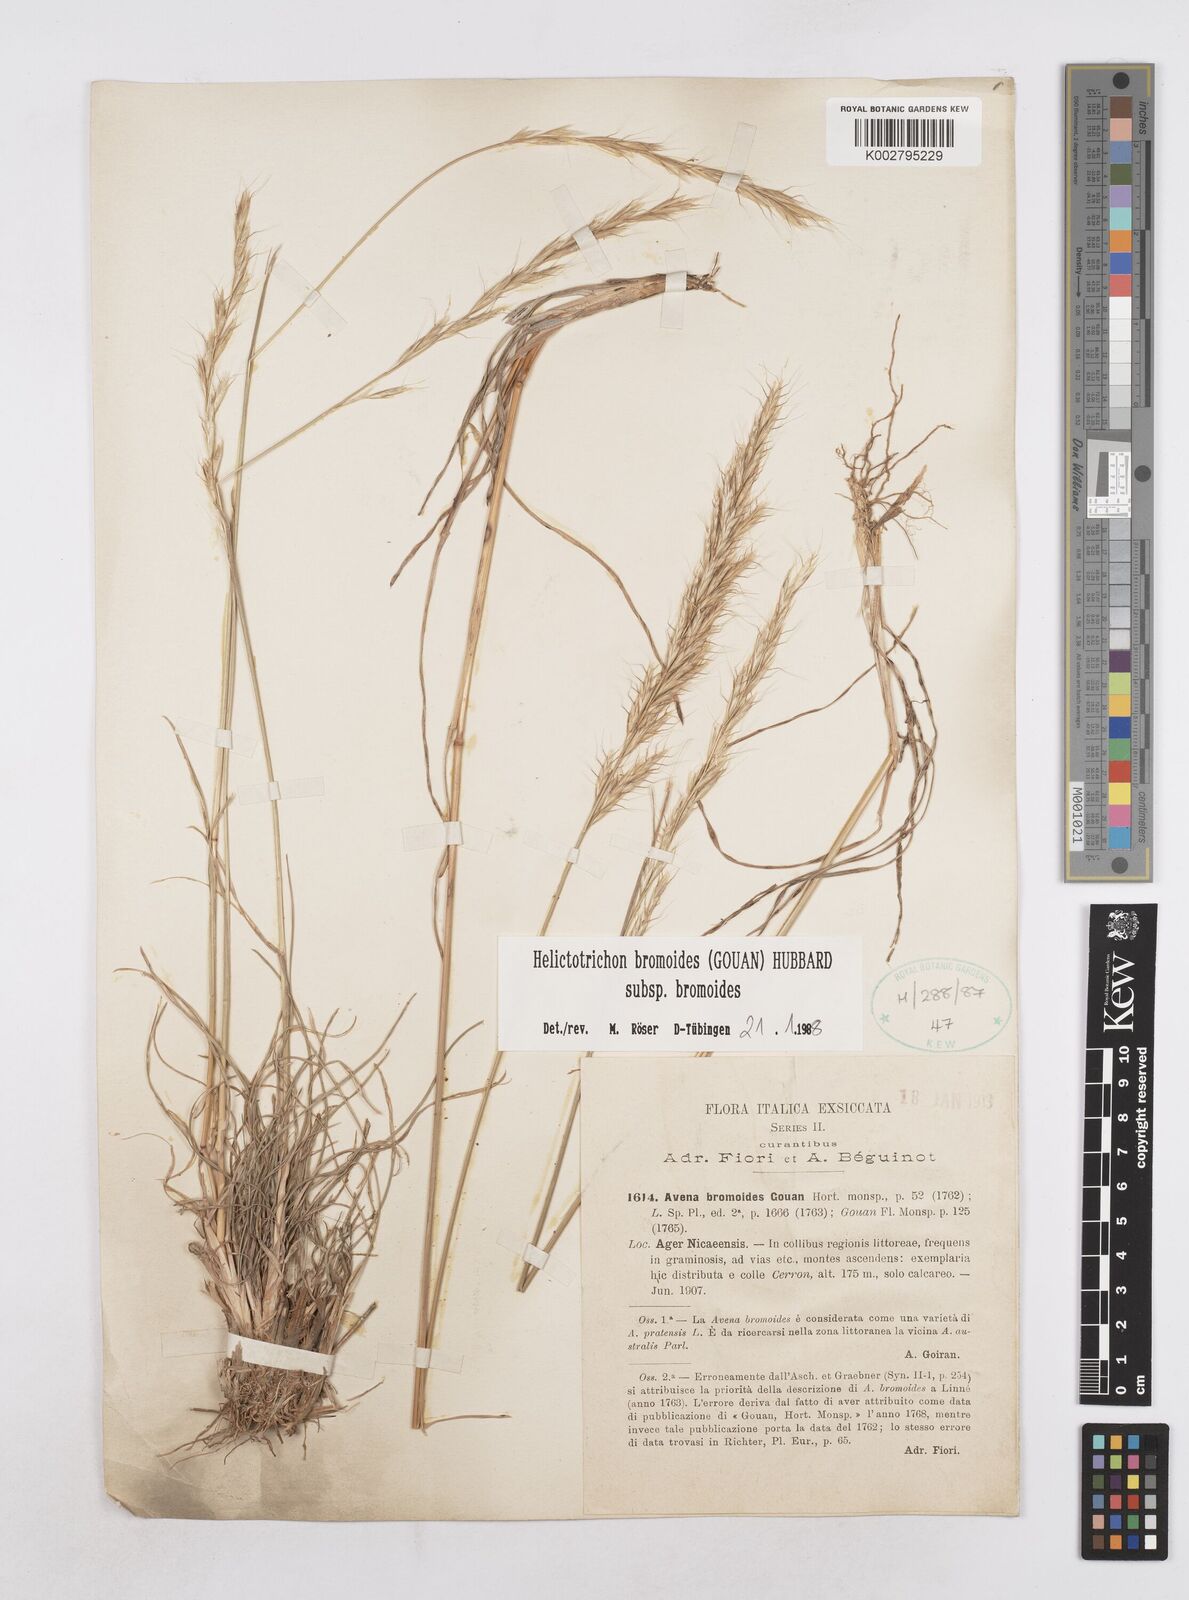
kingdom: Plantae
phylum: Tracheophyta
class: Liliopsida
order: Poales
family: Poaceae
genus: Helictochloa
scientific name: Helictochloa bromoides
